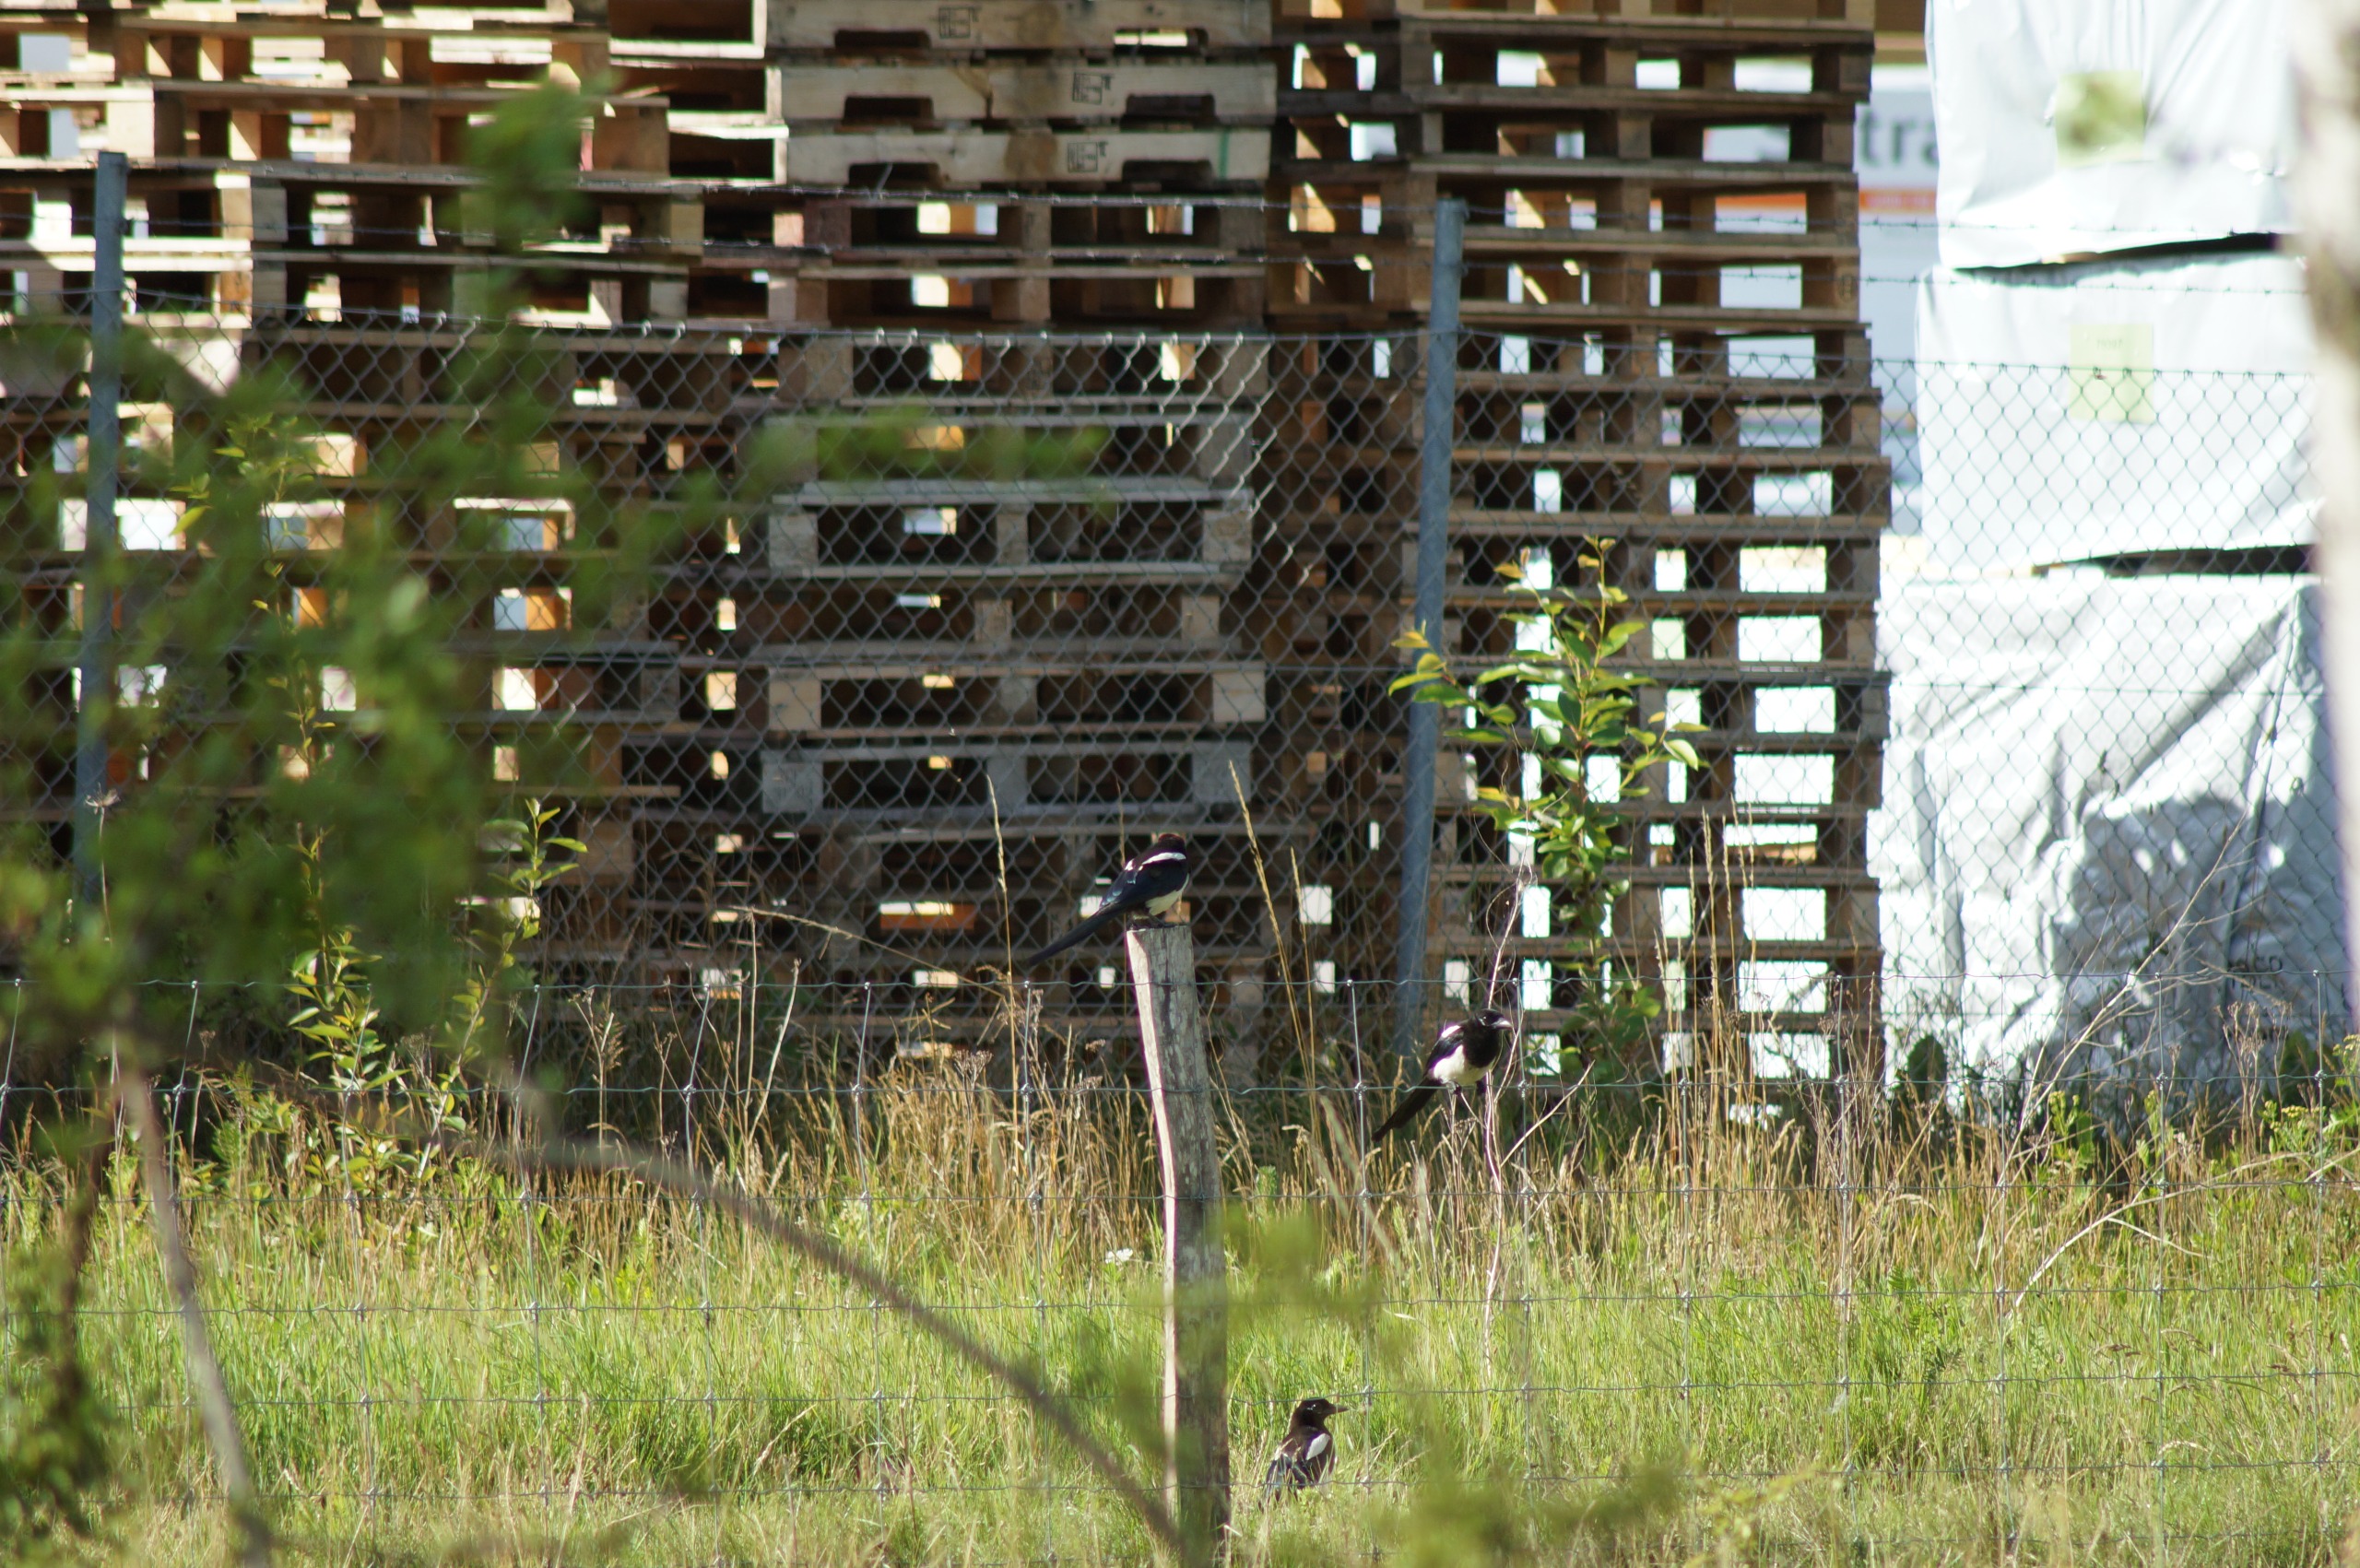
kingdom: Animalia
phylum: Chordata
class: Aves
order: Passeriformes
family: Corvidae
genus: Pica
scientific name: Pica pica
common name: Husskade
